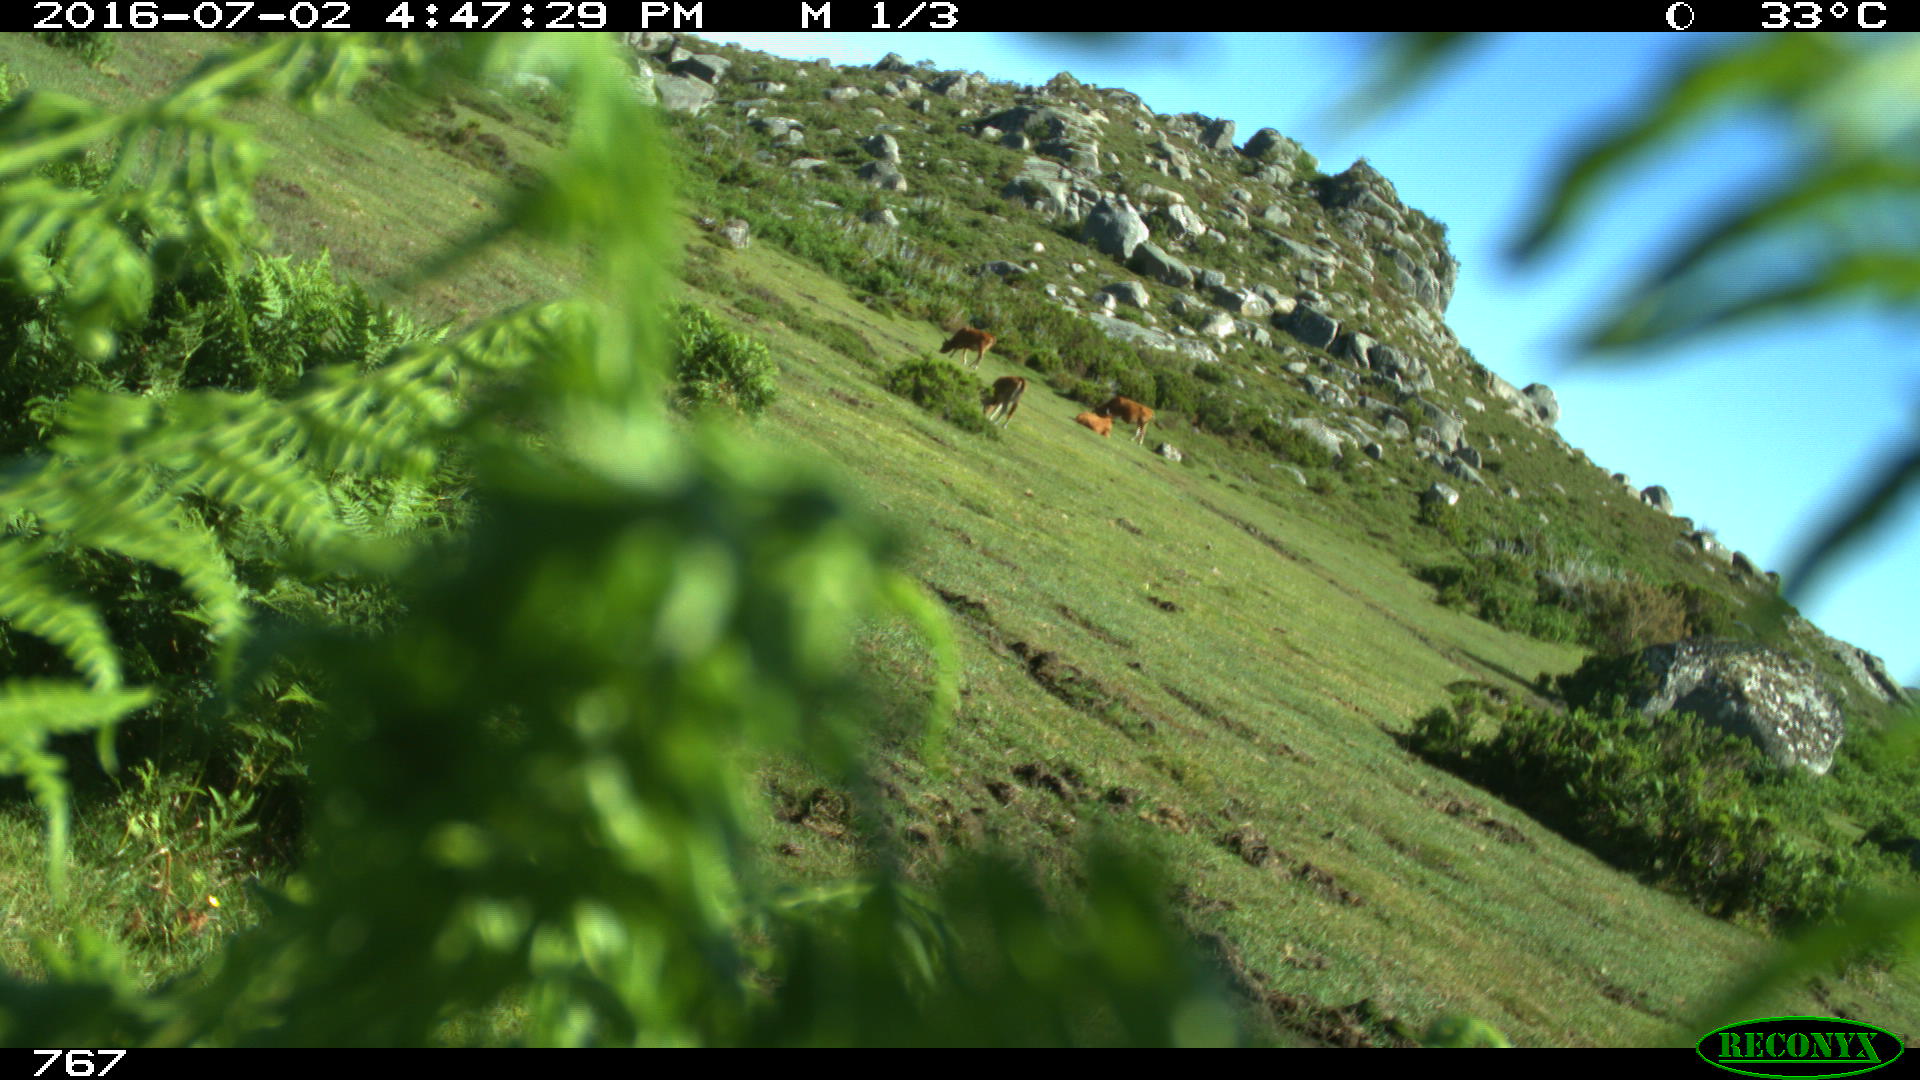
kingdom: Animalia
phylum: Chordata
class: Mammalia
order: Artiodactyla
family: Bovidae
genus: Bos
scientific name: Bos taurus
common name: Domesticated cattle
